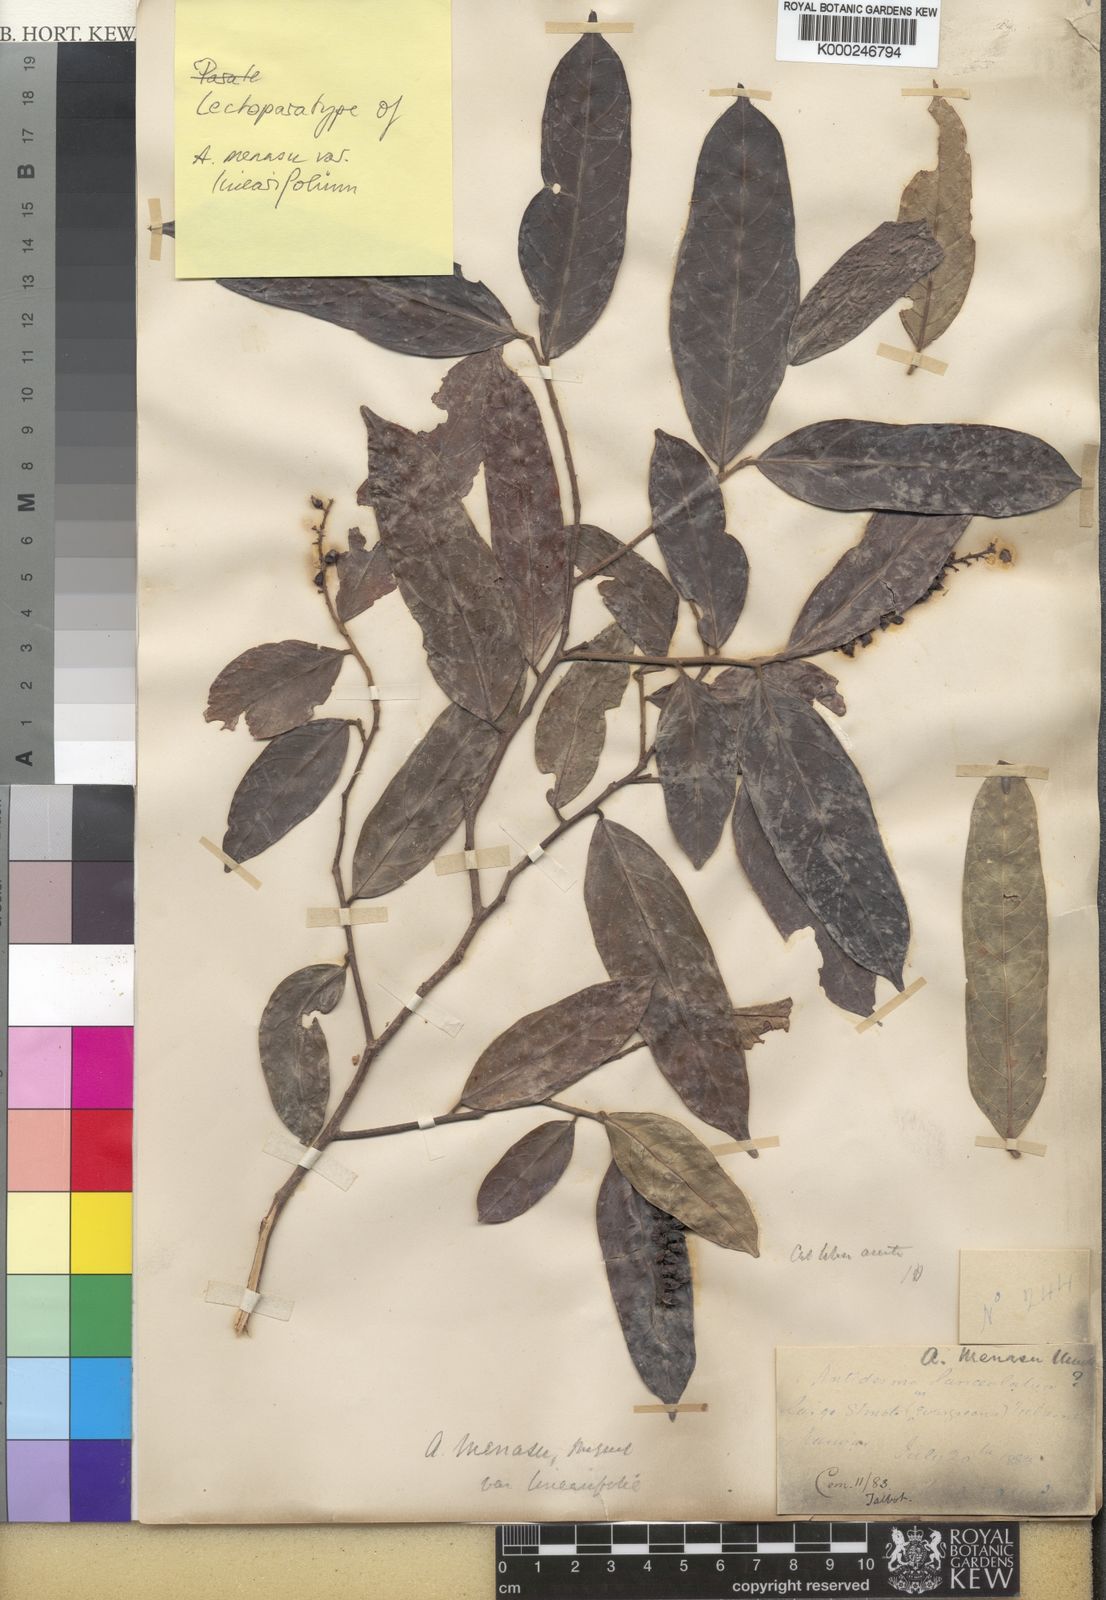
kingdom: Plantae
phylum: Tracheophyta
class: Magnoliopsida
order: Malpighiales
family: Phyllanthaceae
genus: Antidesma
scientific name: Antidesma montanum
